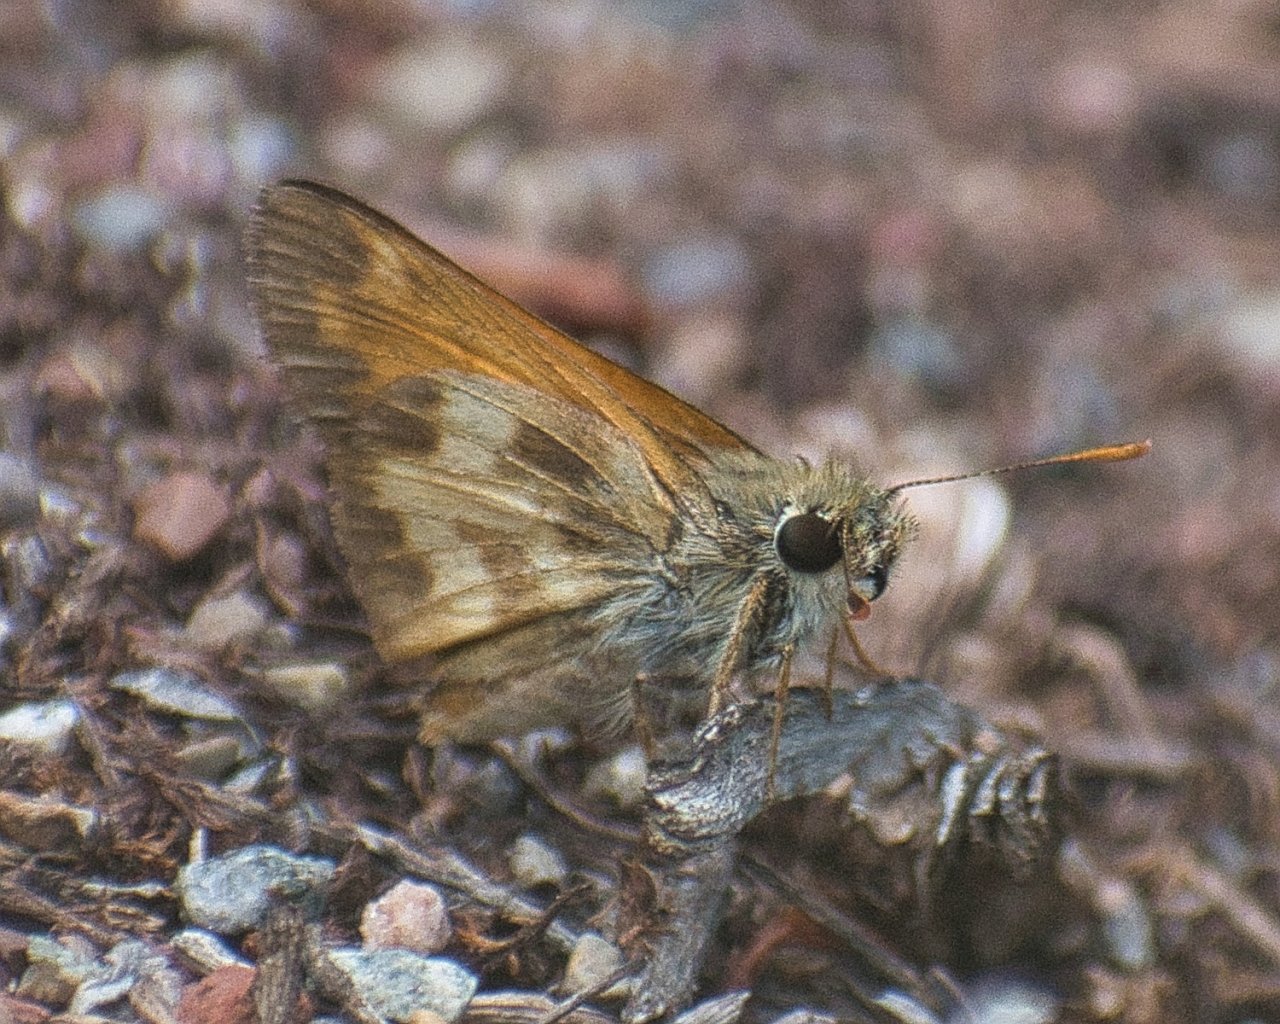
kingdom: Animalia
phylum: Arthropoda
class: Insecta
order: Lepidoptera
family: Hesperiidae
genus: Lon
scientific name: Lon taxiles
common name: Taxiles Skipper
